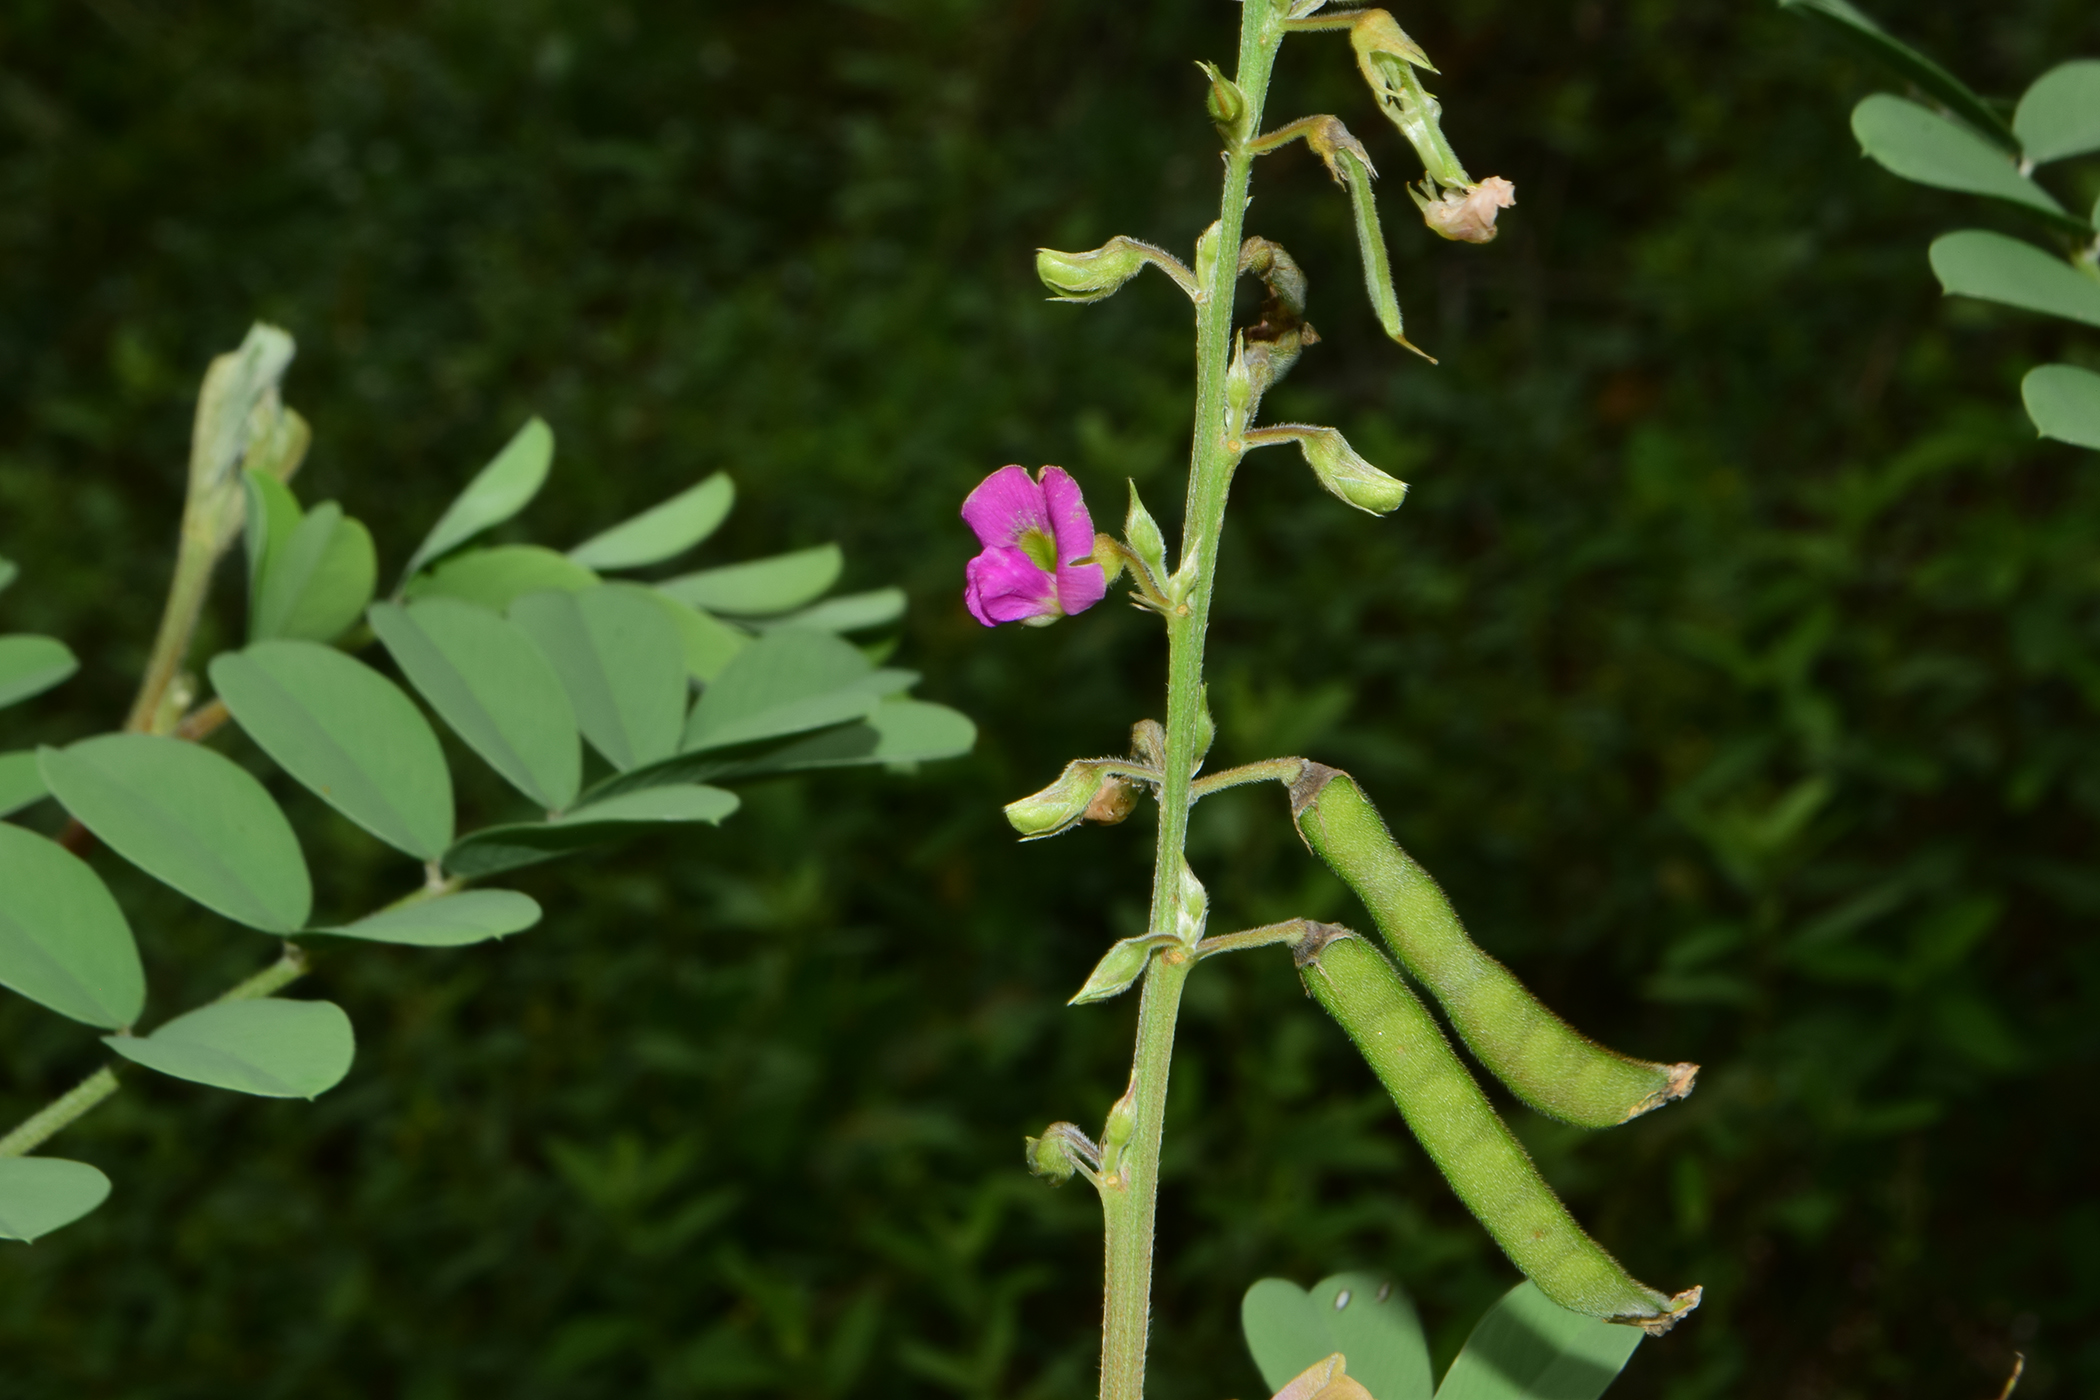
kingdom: Plantae
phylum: Tracheophyta
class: Magnoliopsida
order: Fabales
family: Fabaceae
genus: Tephrosia
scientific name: Tephrosia purpurea
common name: Fishpoison
